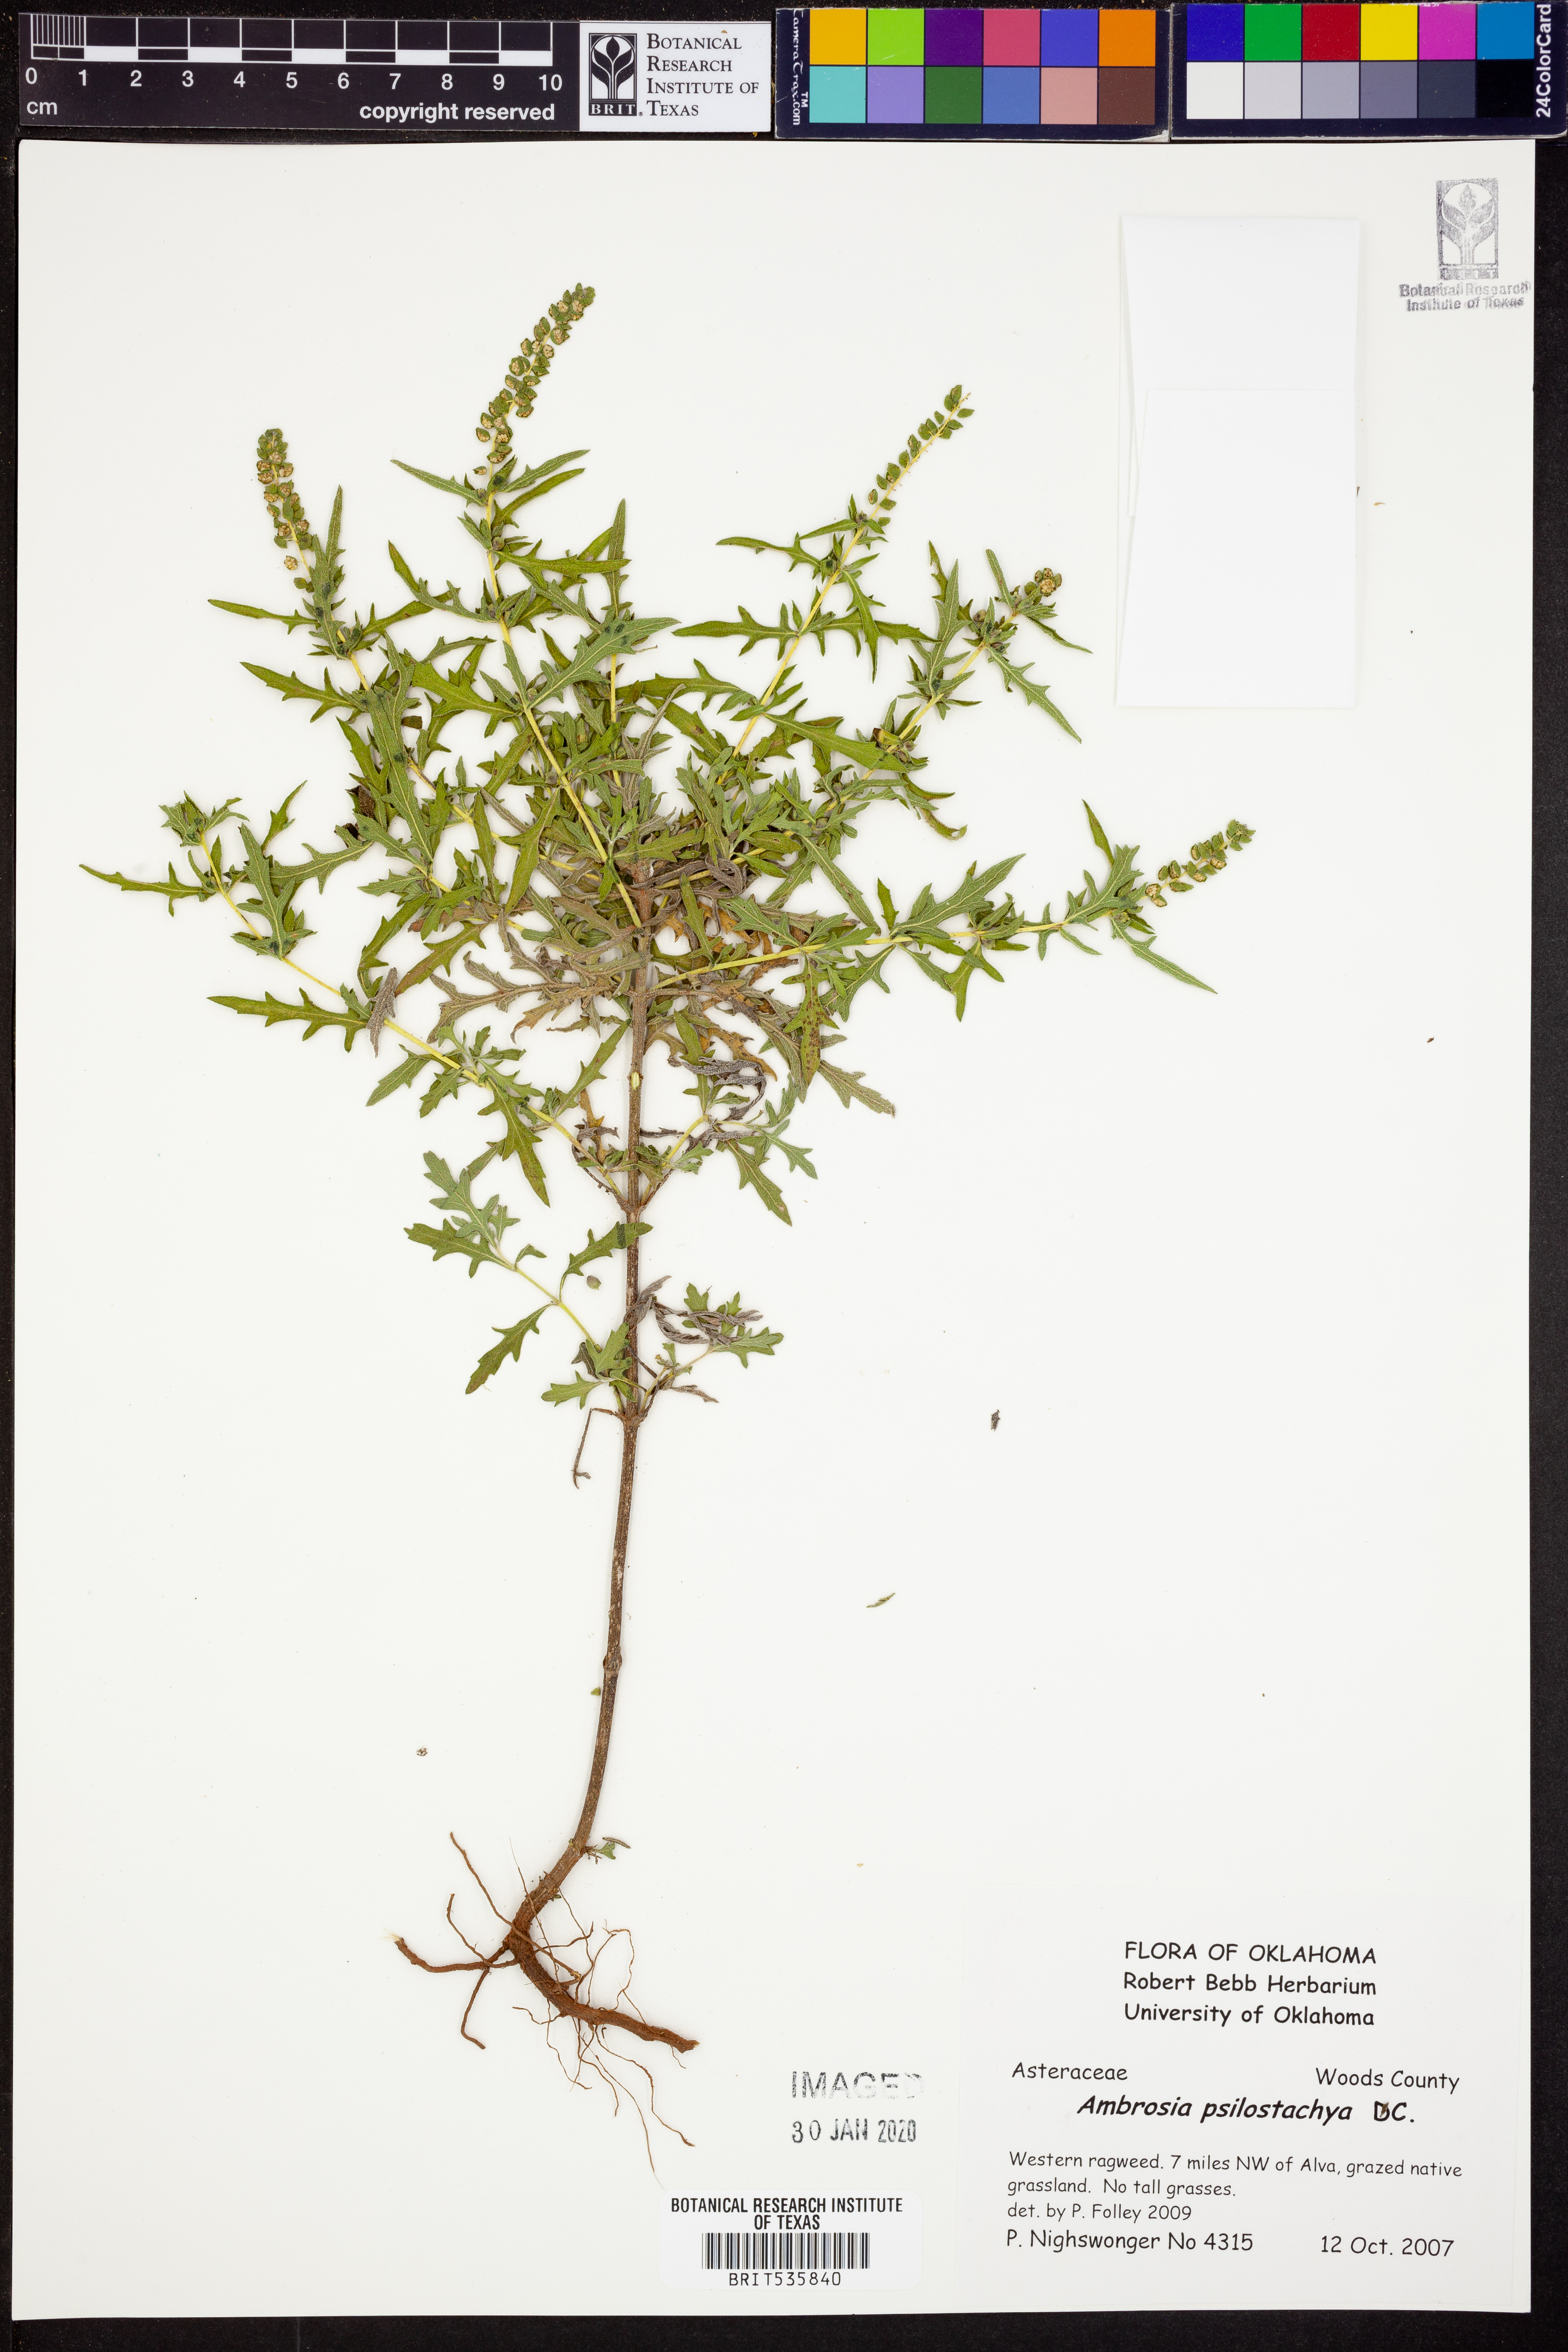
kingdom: Plantae
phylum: Tracheophyta
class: Magnoliopsida
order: Asterales
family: Asteraceae
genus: Ambrosia
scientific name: Ambrosia psilostachya
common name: Perennial ragweed
